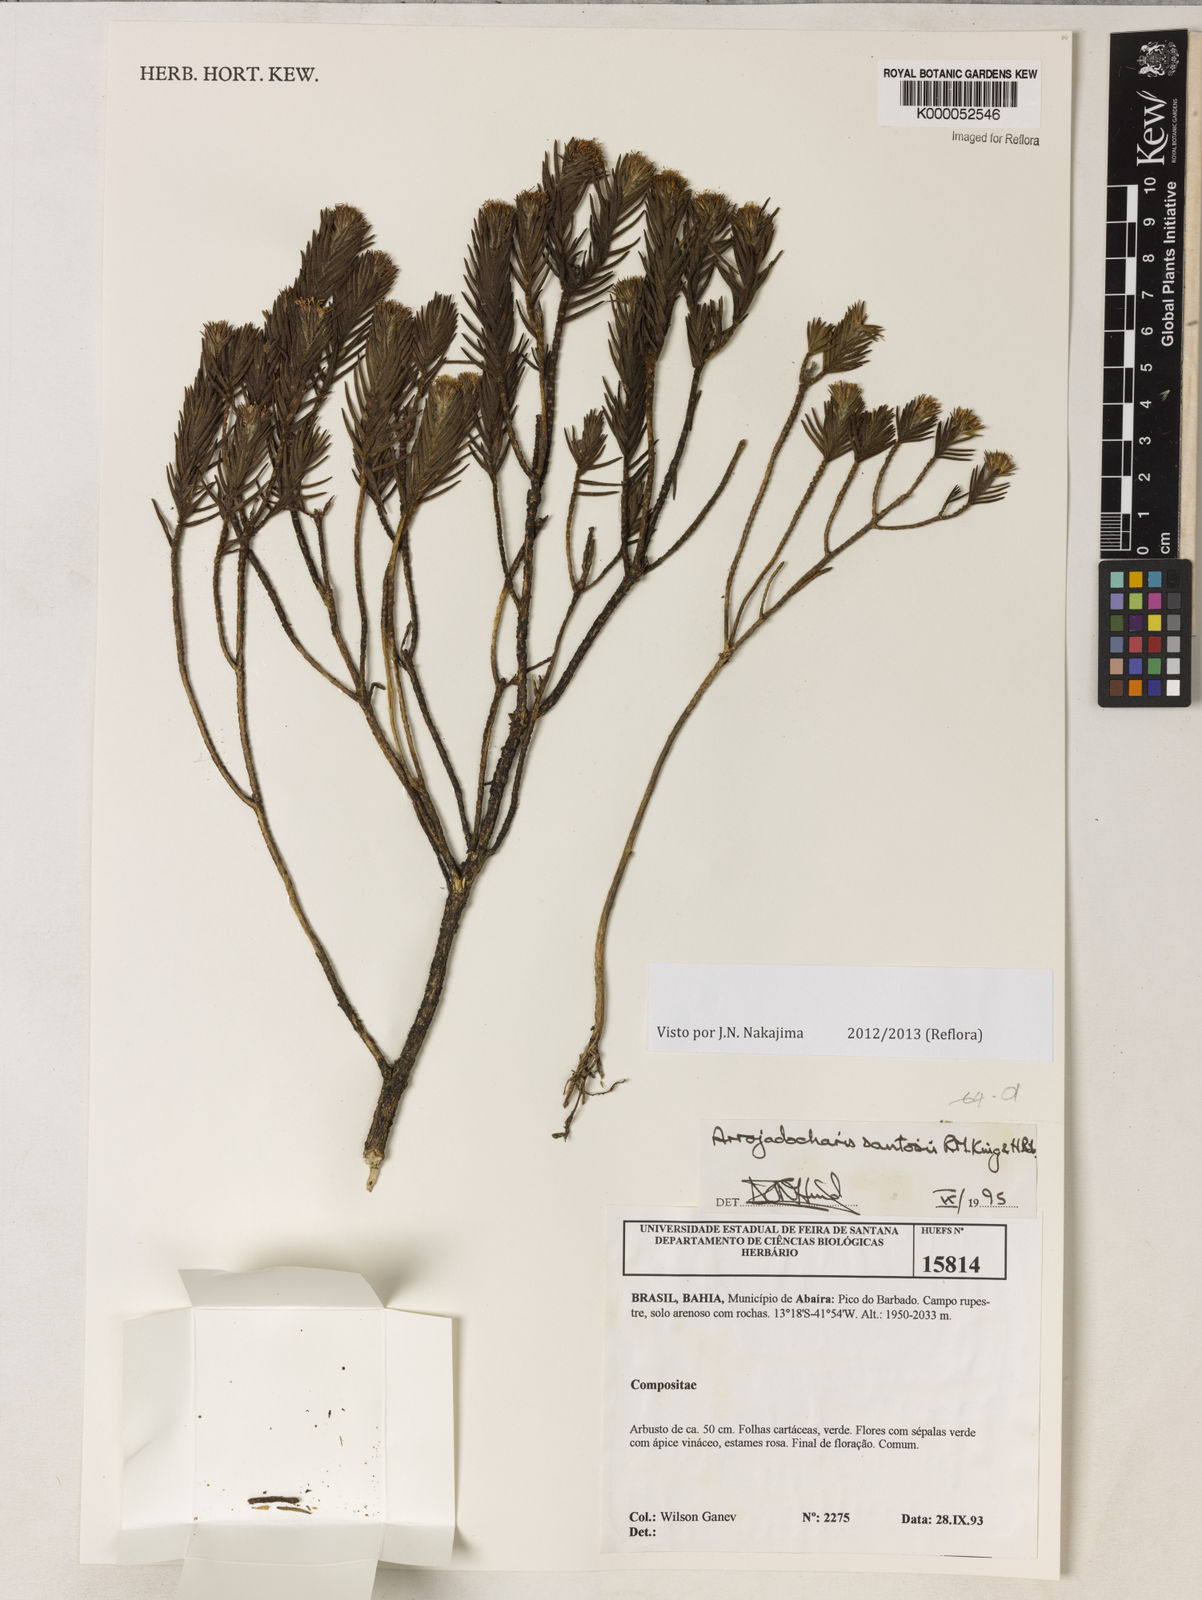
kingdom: Plantae
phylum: Tracheophyta
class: Magnoliopsida
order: Asterales
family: Asteraceae
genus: Arrojadocharis
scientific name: Arrojadocharis santosii
